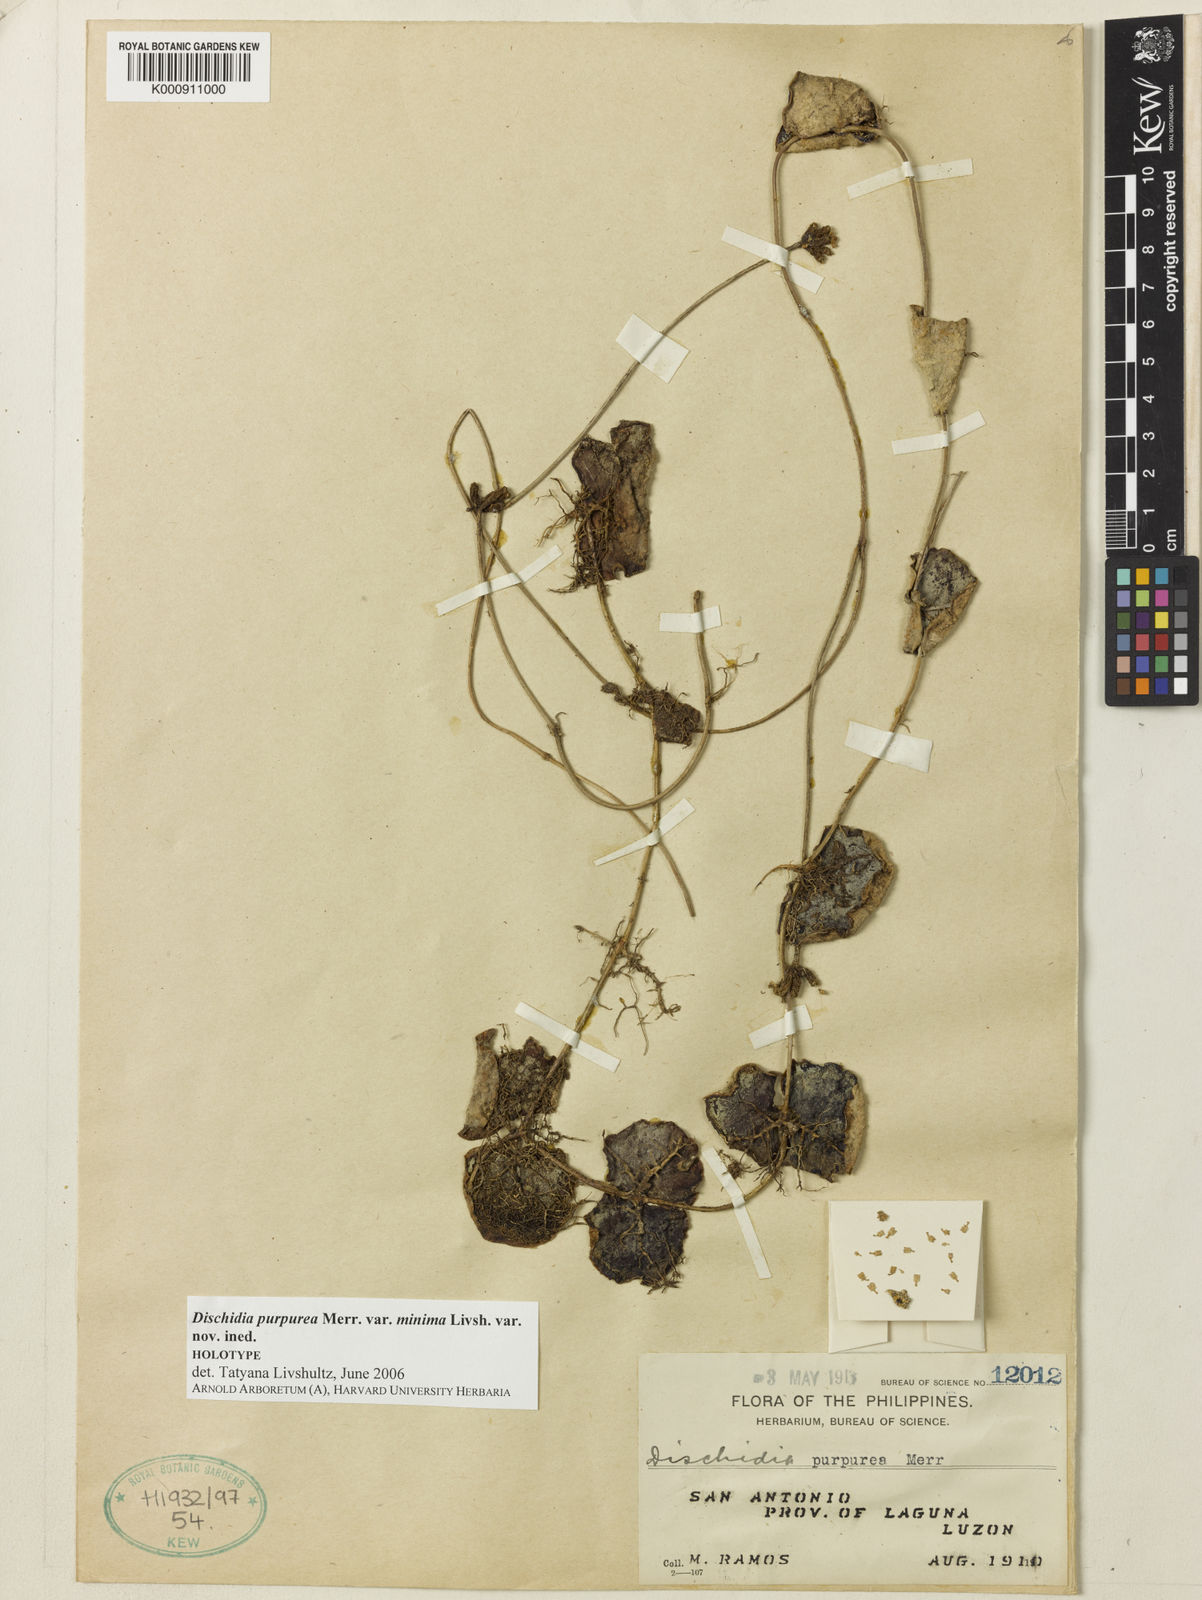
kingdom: Plantae
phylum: Tracheophyta
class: Magnoliopsida
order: Gentianales
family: Apocynaceae
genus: Dischidia
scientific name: Dischidia purpurea
